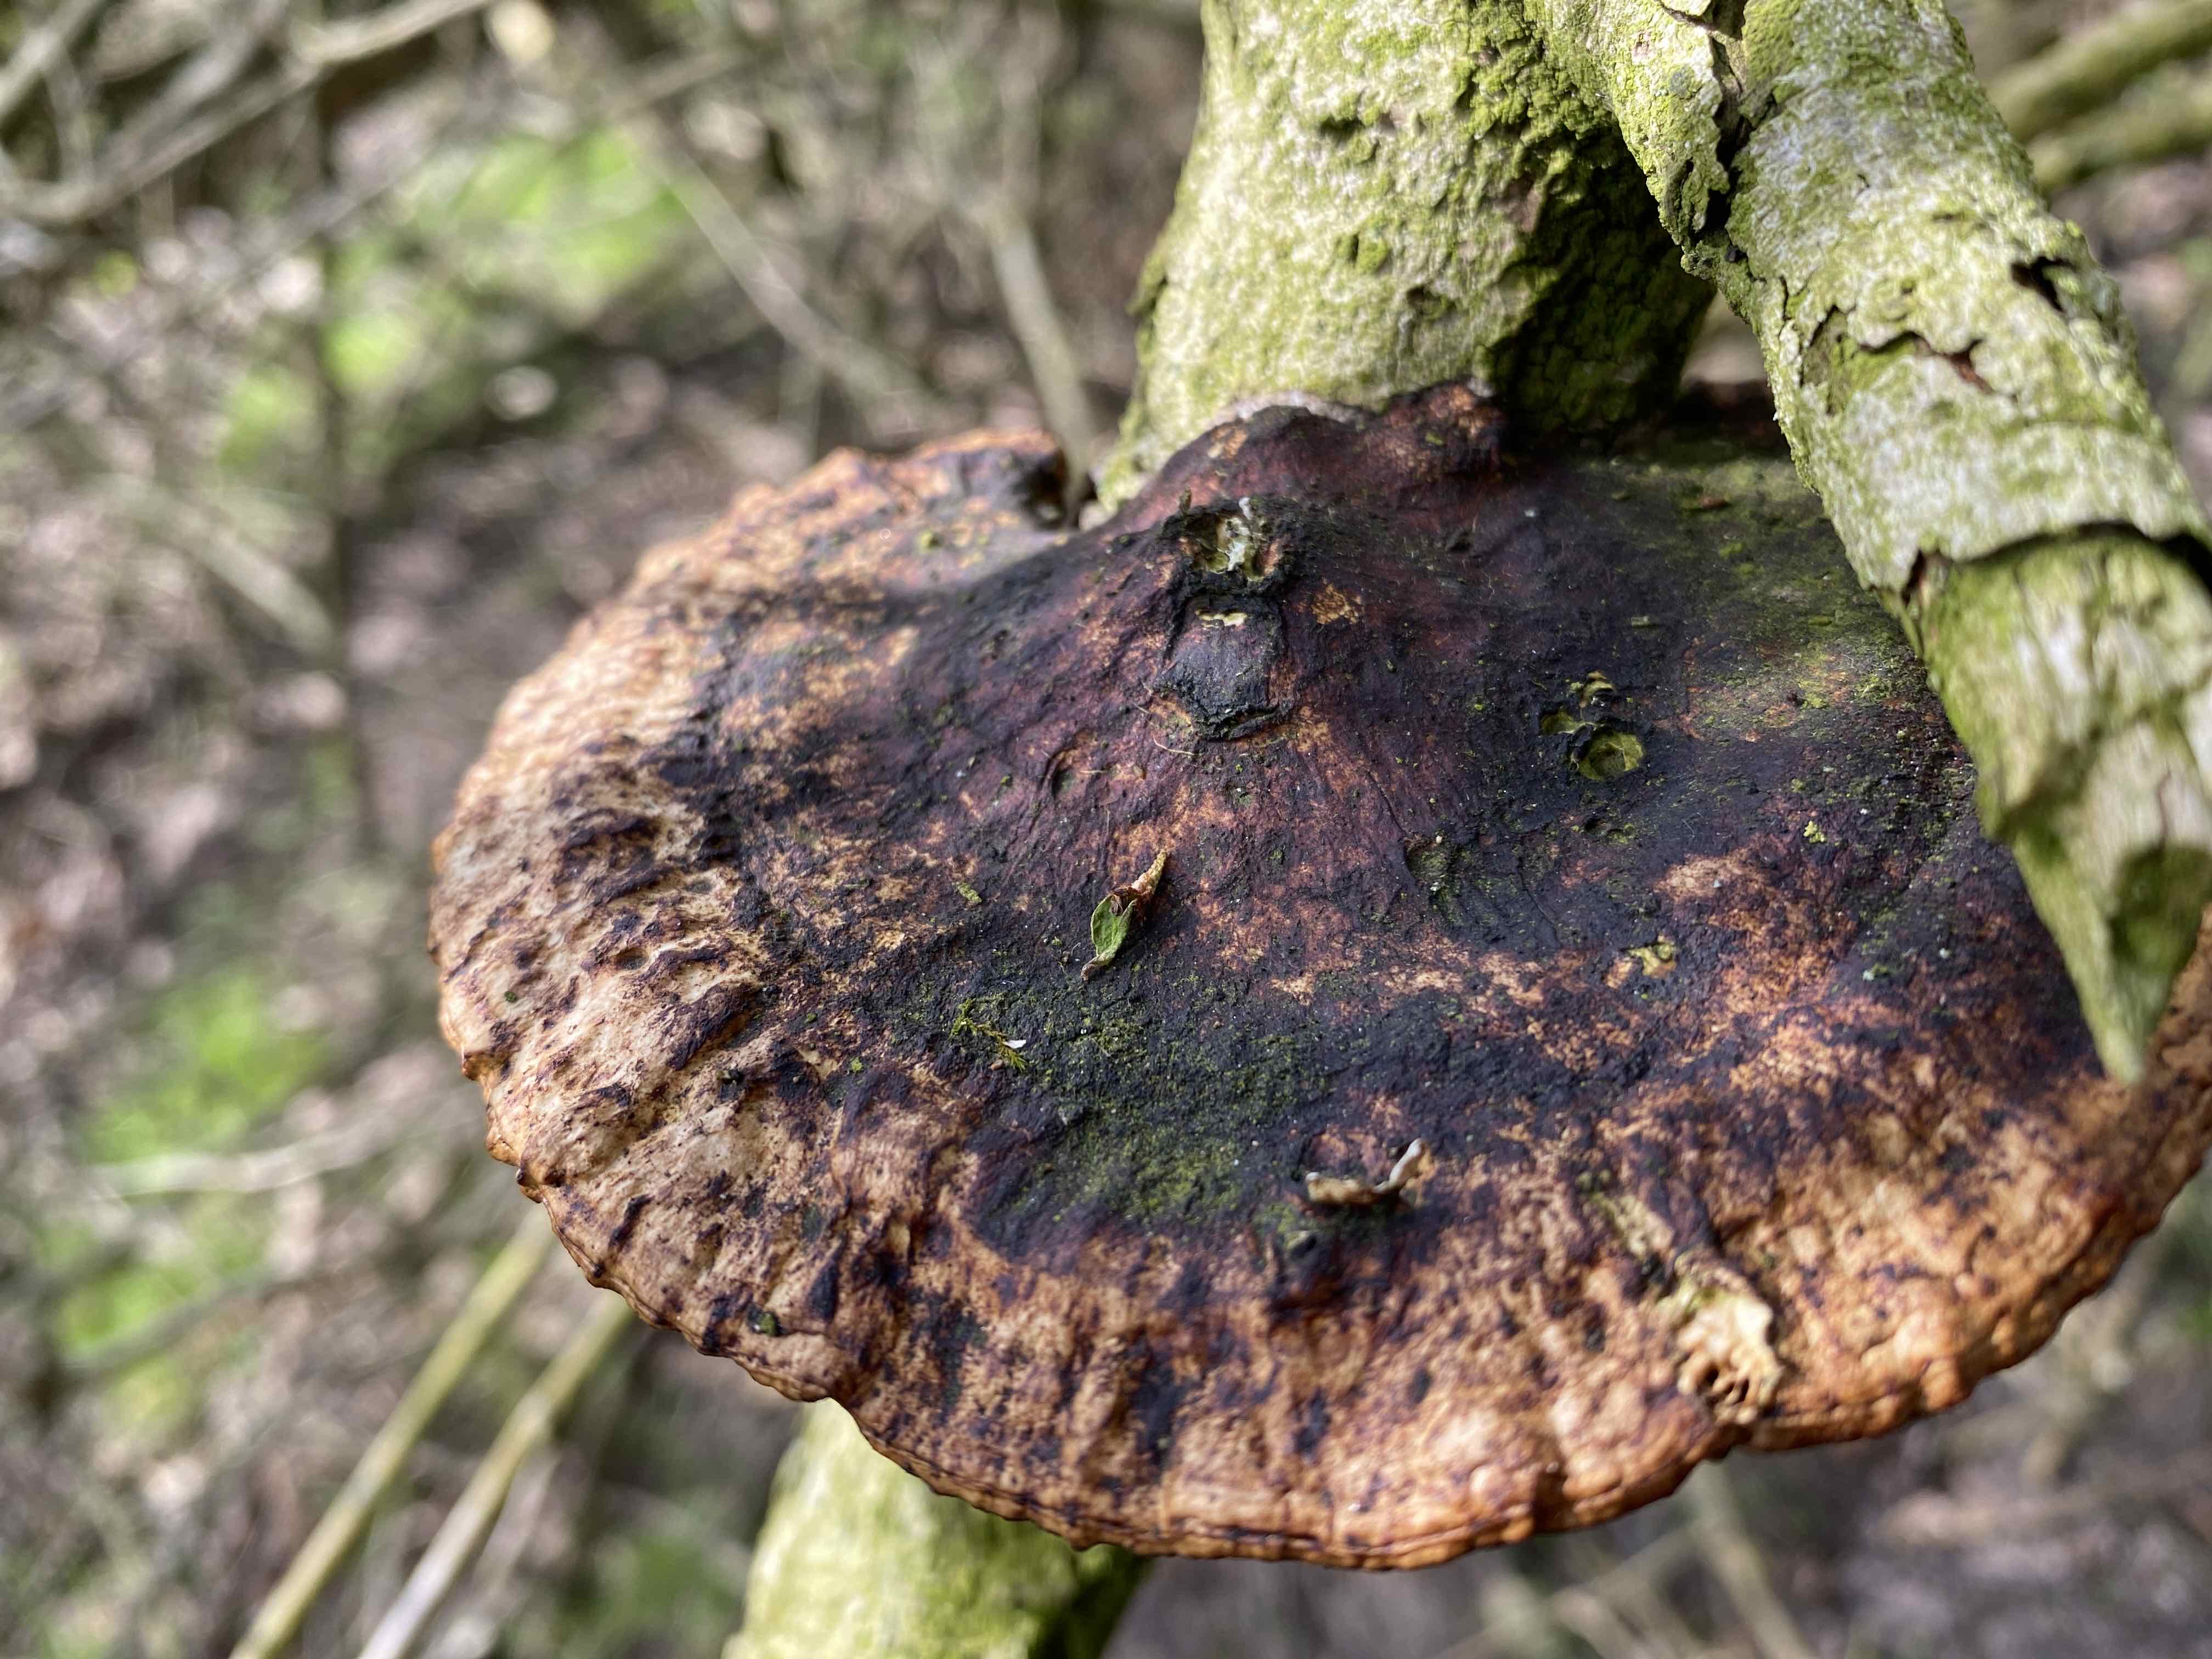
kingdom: Fungi
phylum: Basidiomycota
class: Agaricomycetes
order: Polyporales
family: Polyporaceae
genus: Daedaleopsis
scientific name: Daedaleopsis confragosa
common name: rødmende læderporesvamp
